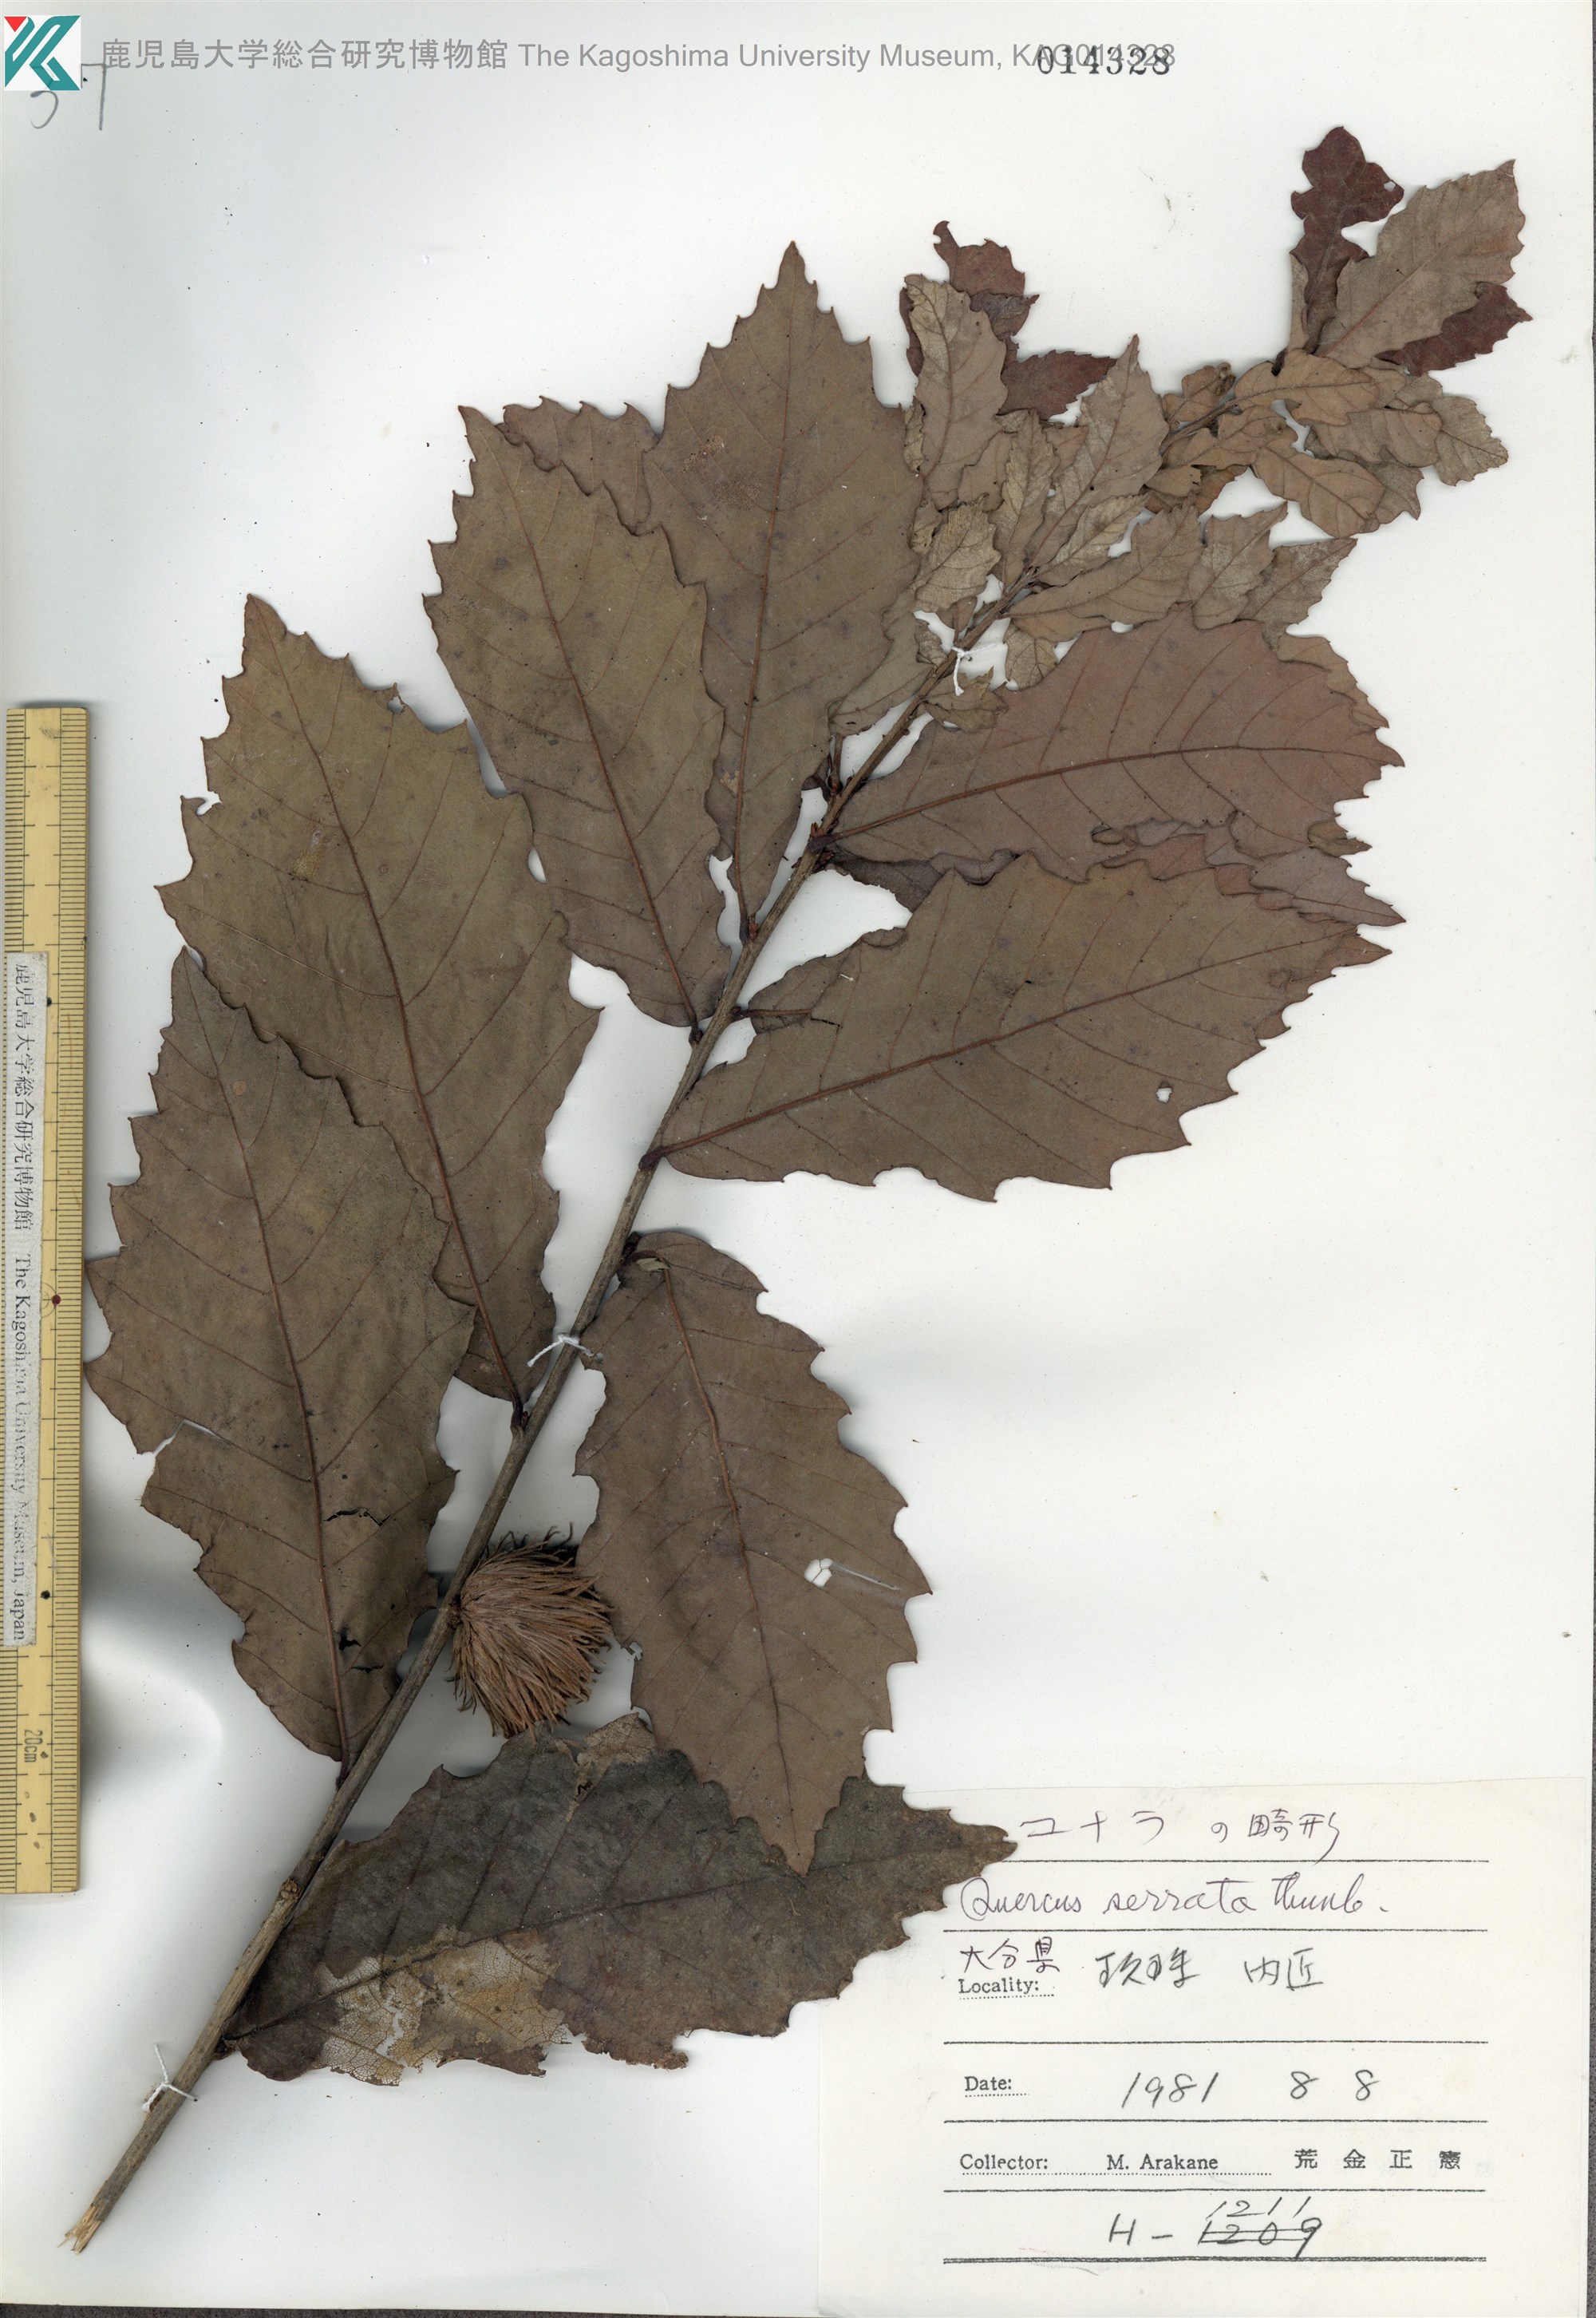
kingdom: Plantae
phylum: Tracheophyta
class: Magnoliopsida
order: Fagales
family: Fagaceae
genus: Quercus
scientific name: Quercus serrata
